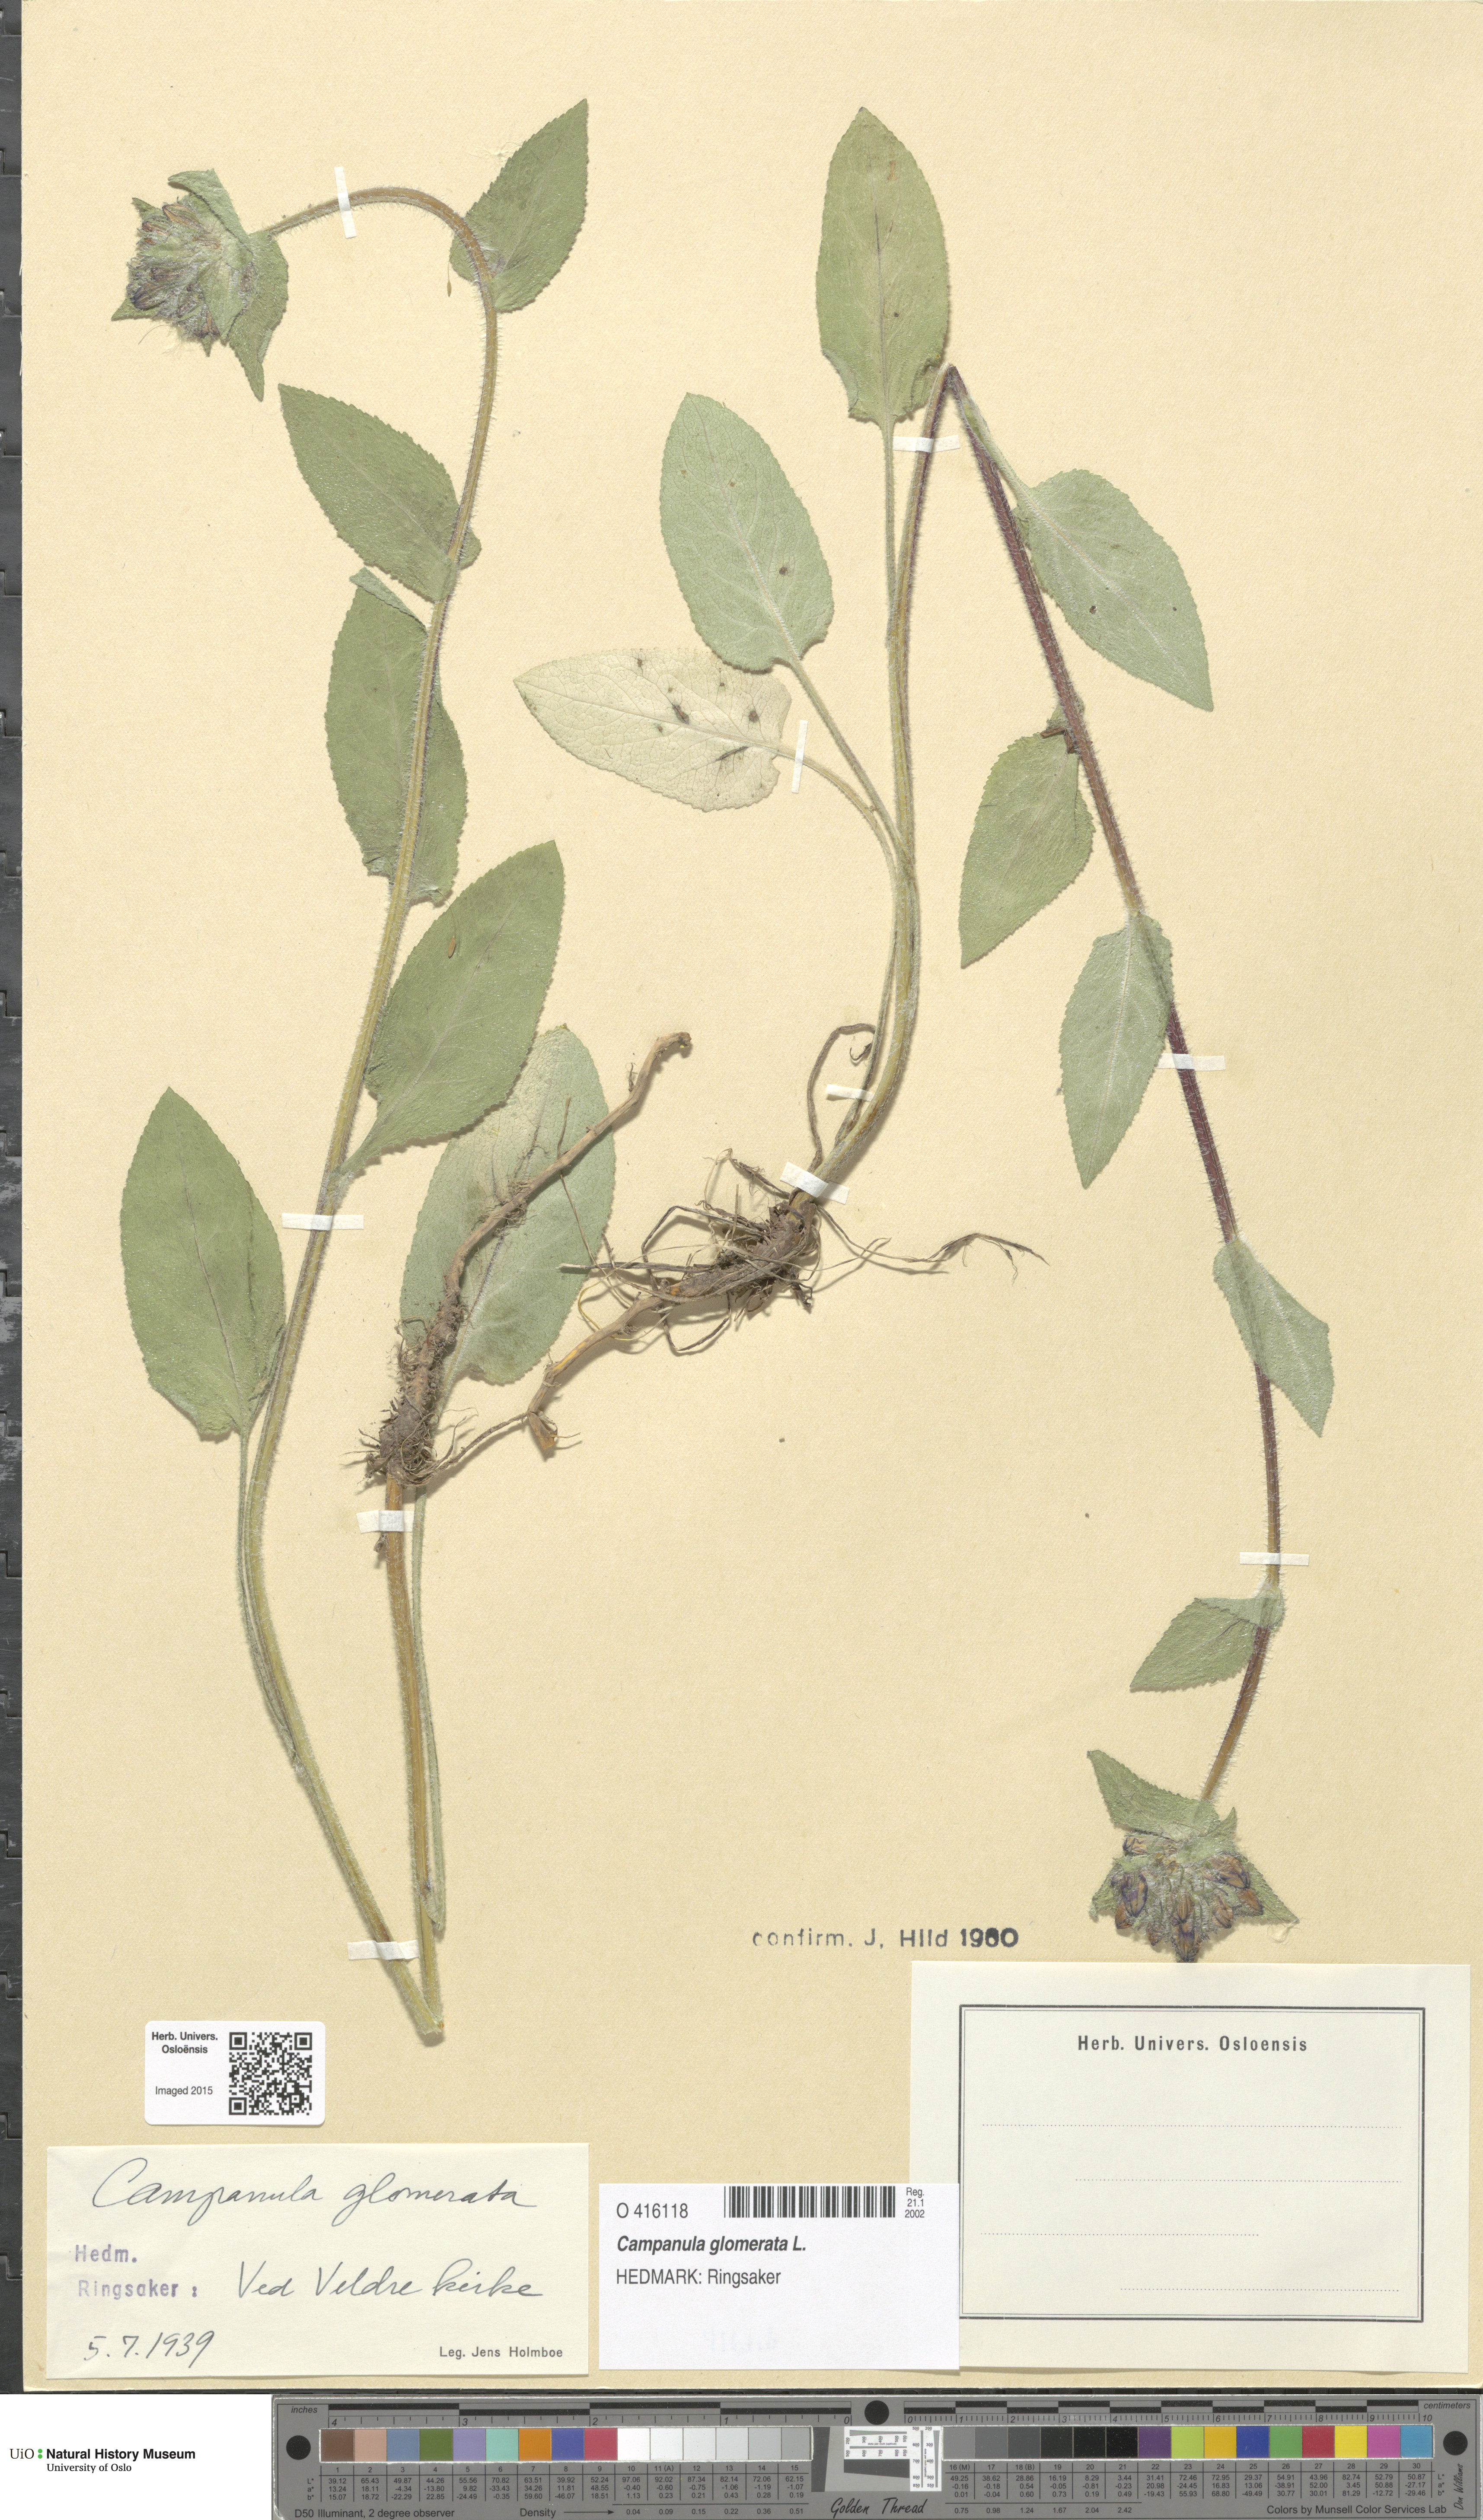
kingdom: Plantae
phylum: Tracheophyta
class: Magnoliopsida
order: Asterales
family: Campanulaceae
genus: Campanula
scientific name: Campanula glomerata
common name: Clustered bellflower
